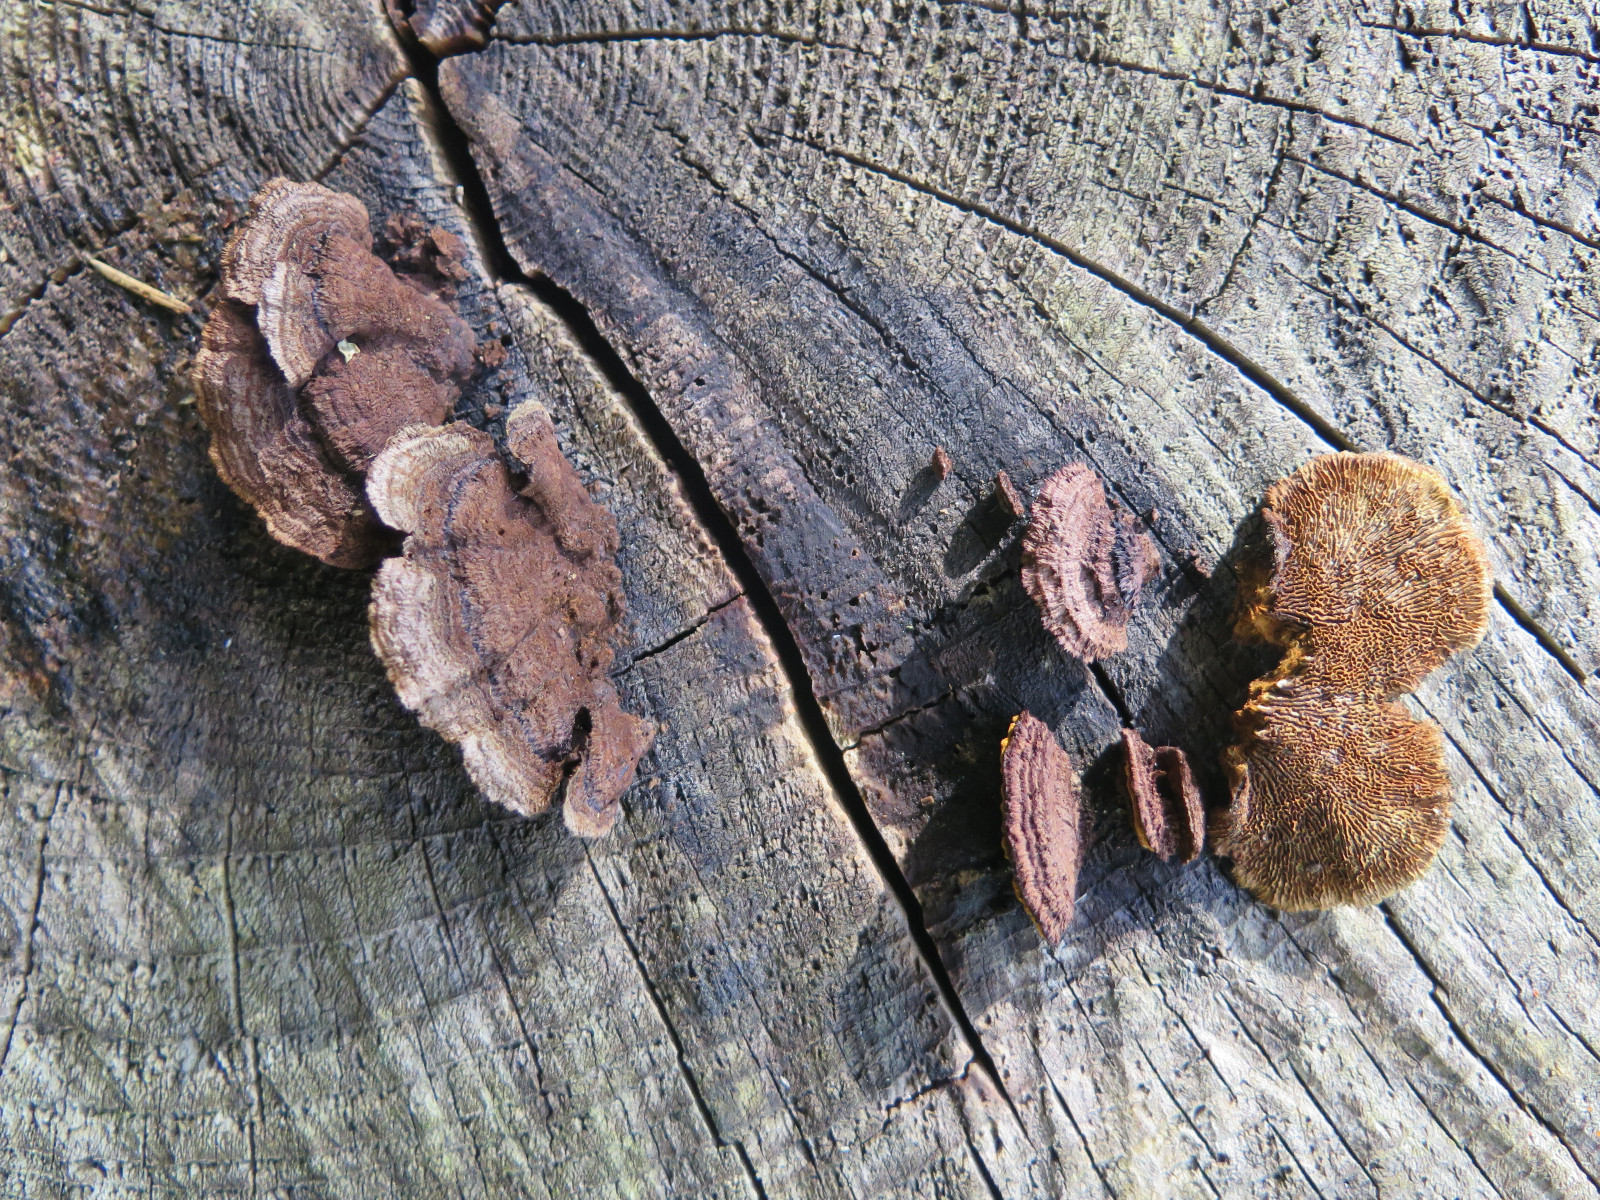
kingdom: Fungi
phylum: Basidiomycota
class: Agaricomycetes
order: Gloeophyllales
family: Gloeophyllaceae
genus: Gloeophyllum
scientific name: Gloeophyllum sepiarium
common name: fyrre-korkhat
